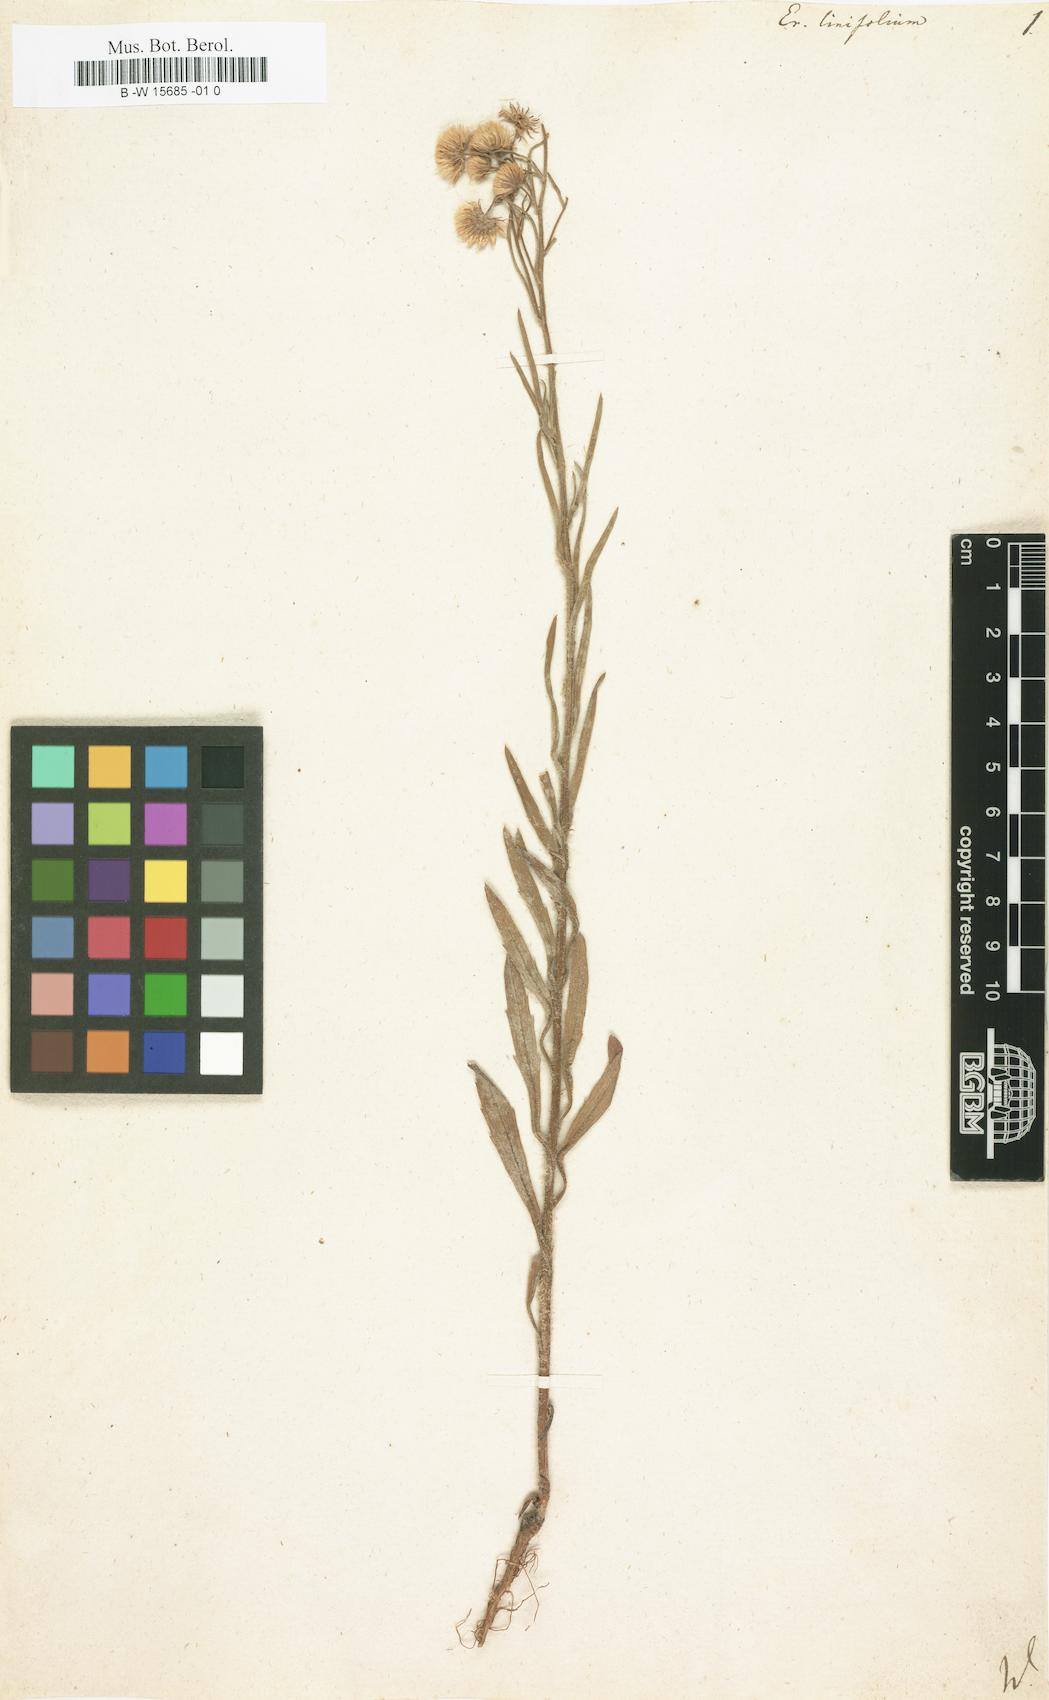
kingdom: Plantae
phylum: Tracheophyta
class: Magnoliopsida
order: Asterales
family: Asteraceae
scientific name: Asteraceae
